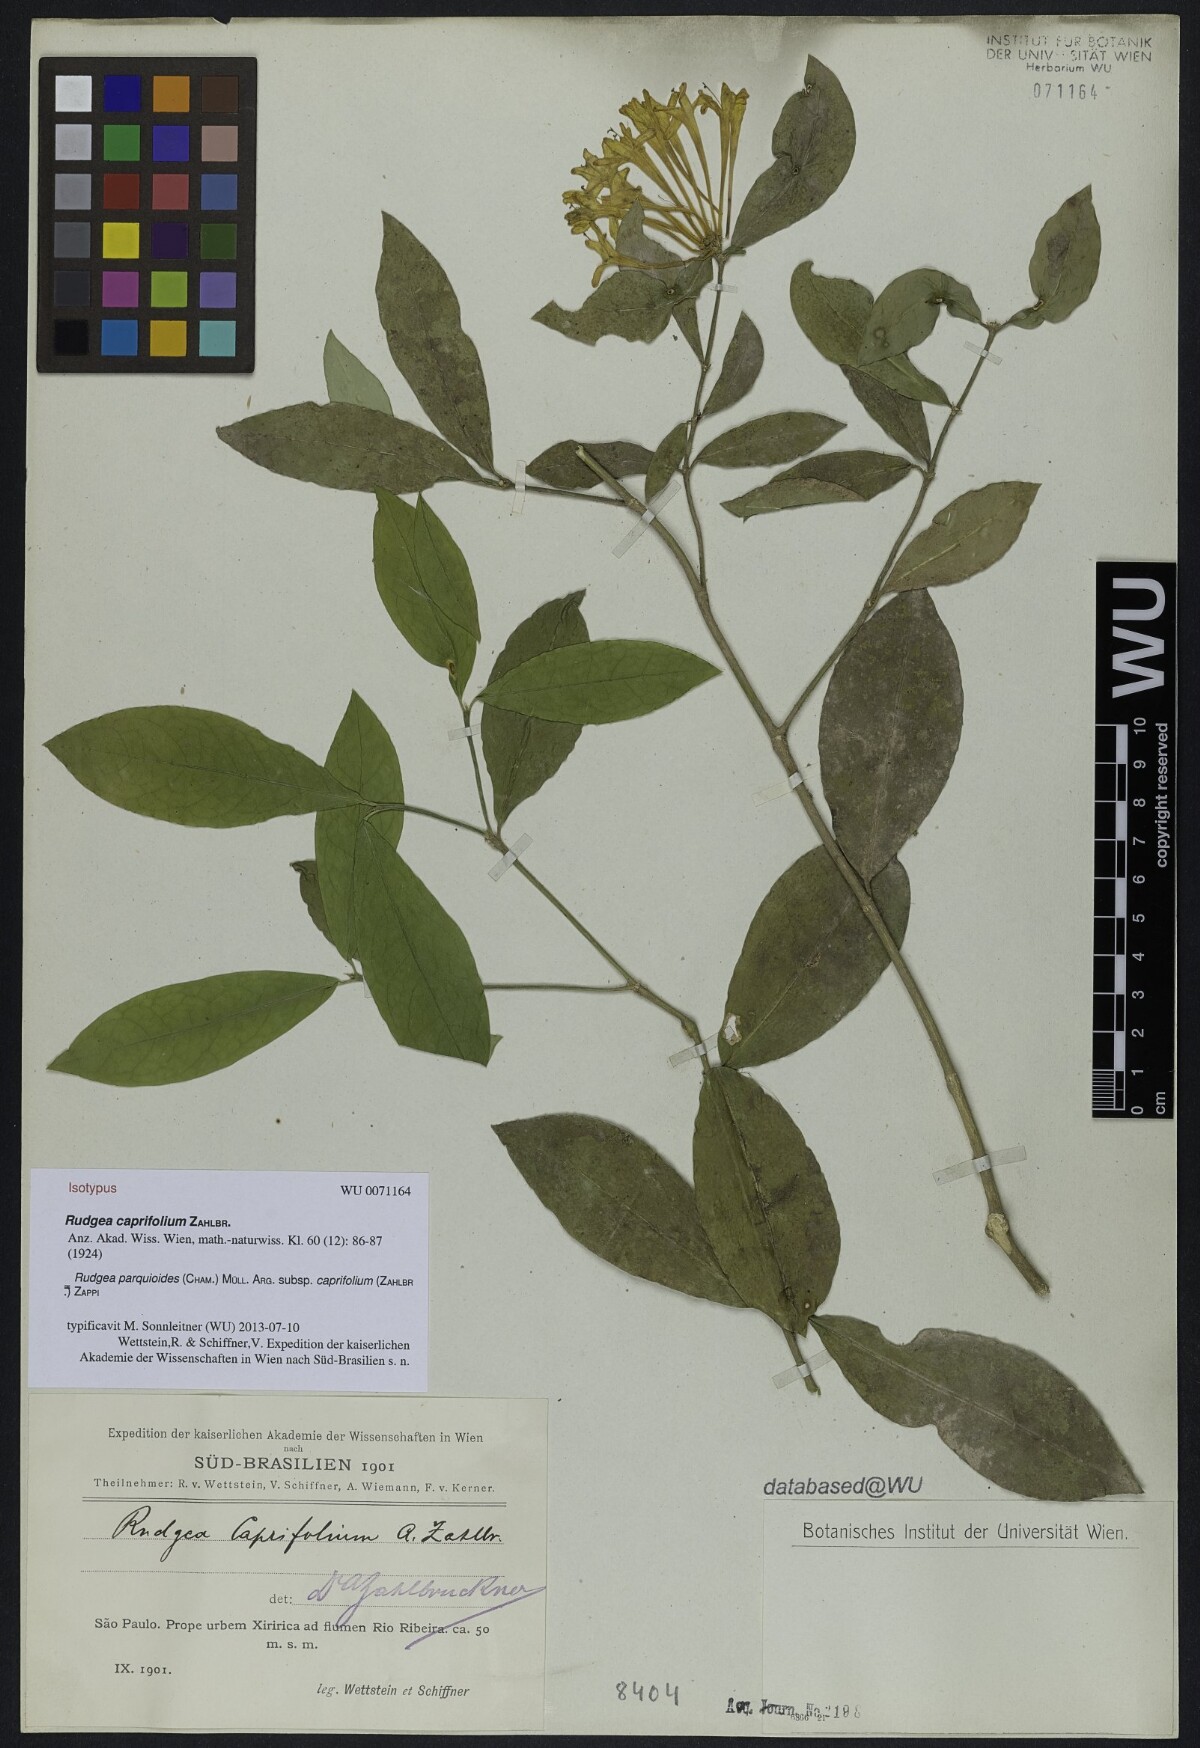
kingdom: Plantae
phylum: Tracheophyta
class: Magnoliopsida
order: Gentianales
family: Rubiaceae
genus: Rudgea
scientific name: Rudgea parquioides
